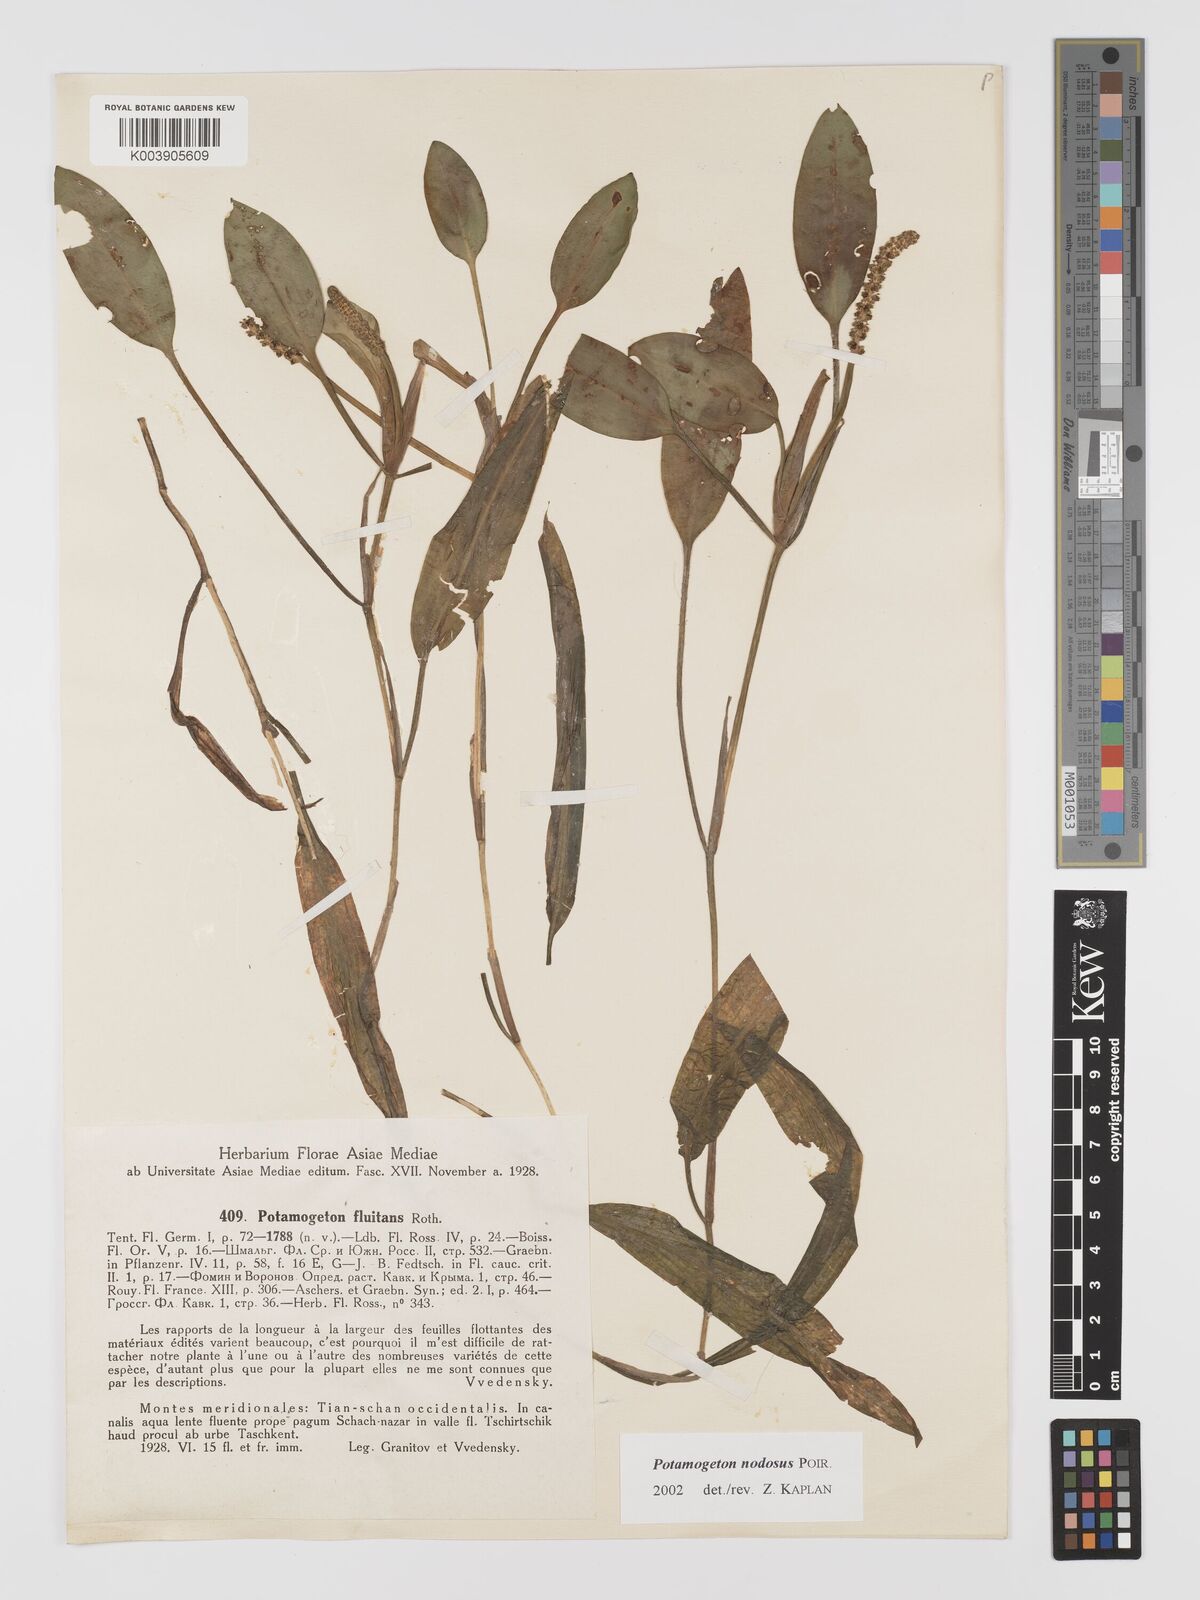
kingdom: Plantae
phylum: Tracheophyta
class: Liliopsida
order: Alismatales
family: Potamogetonaceae
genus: Potamogeton
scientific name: Potamogeton nodosus
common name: Loddon pondweed
